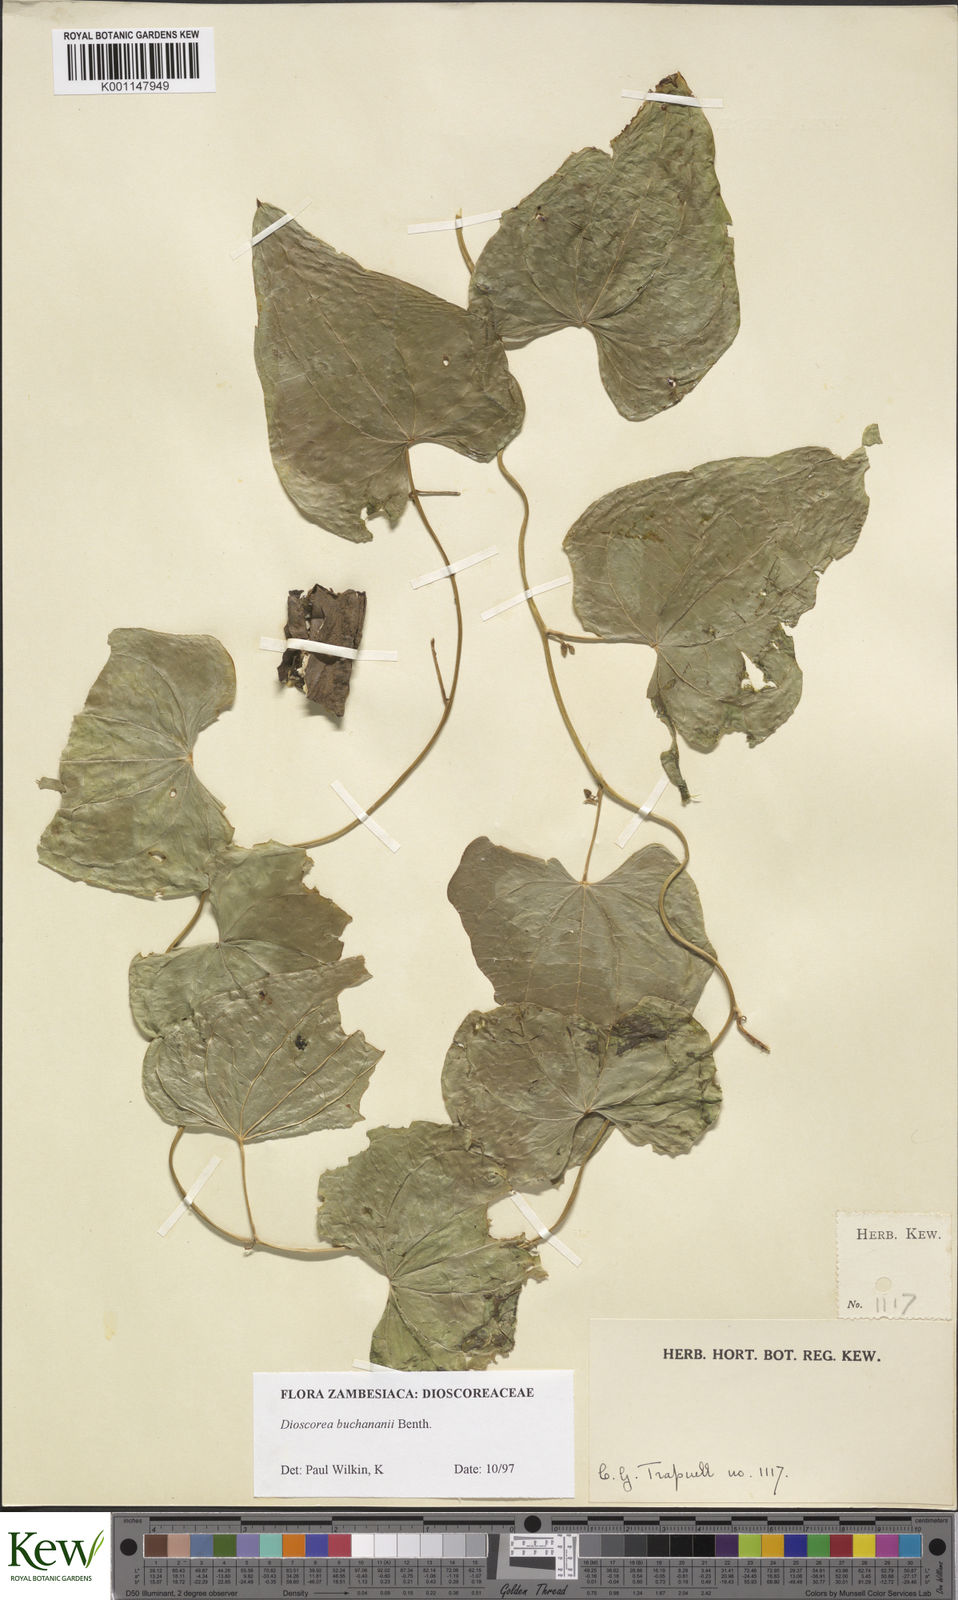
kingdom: Plantae
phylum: Tracheophyta
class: Liliopsida
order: Dioscoreales
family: Dioscoreaceae
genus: Dioscorea
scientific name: Dioscorea buchananii
